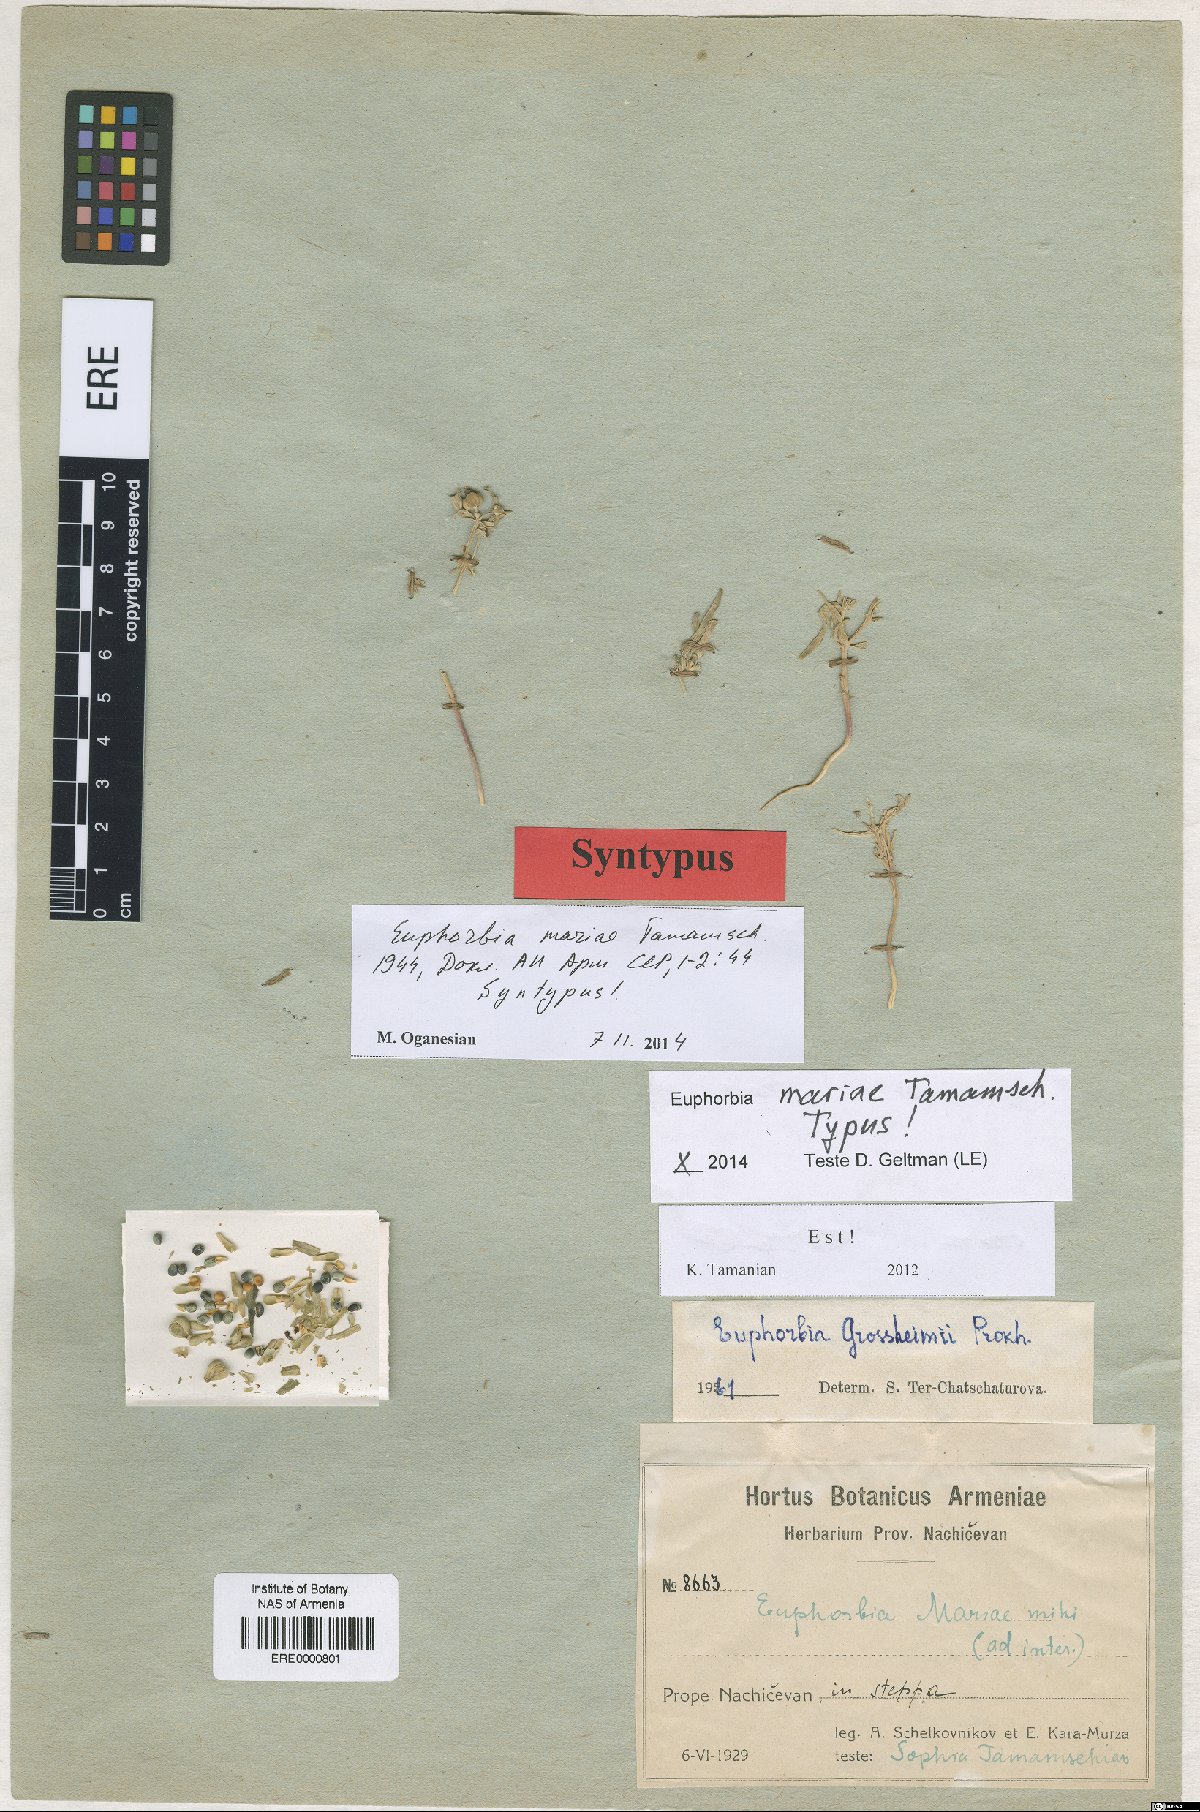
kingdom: Plantae
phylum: Tracheophyta
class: Magnoliopsida
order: Malpighiales
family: Euphorbiaceae
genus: Euphorbia
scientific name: Euphorbia grossheimii
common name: Grossheim's spurge
